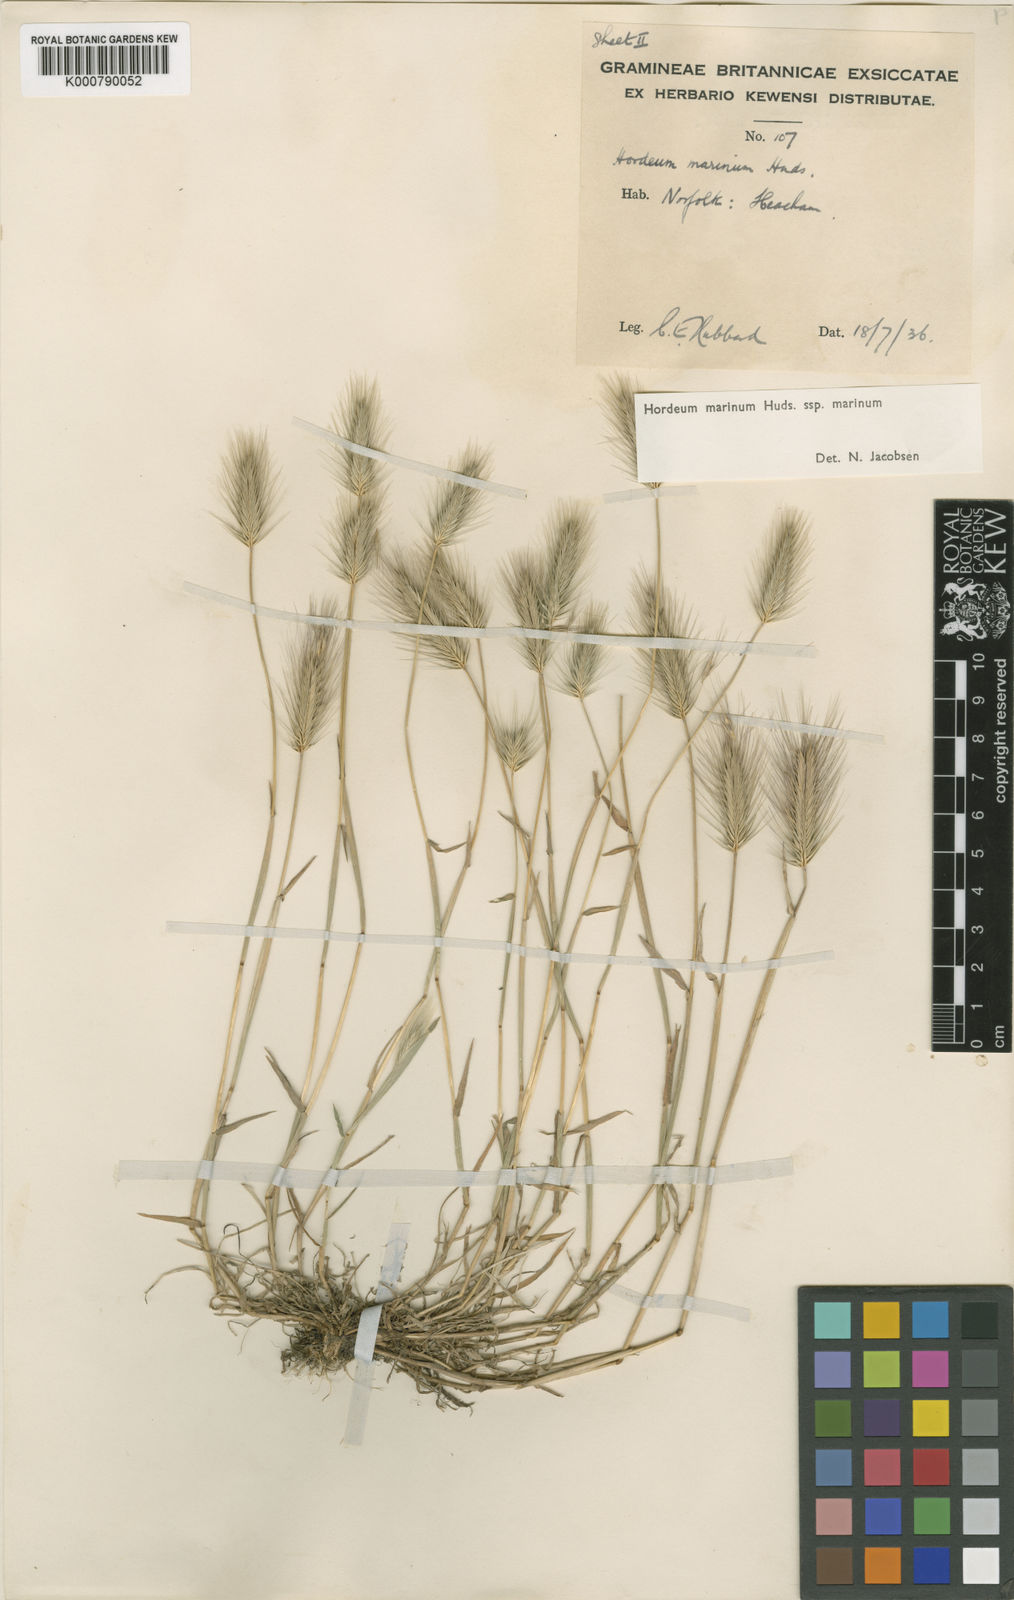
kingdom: Plantae
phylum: Tracheophyta
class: Liliopsida
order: Poales
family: Poaceae
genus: Hordeum
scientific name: Hordeum marinum
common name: Sea barley
